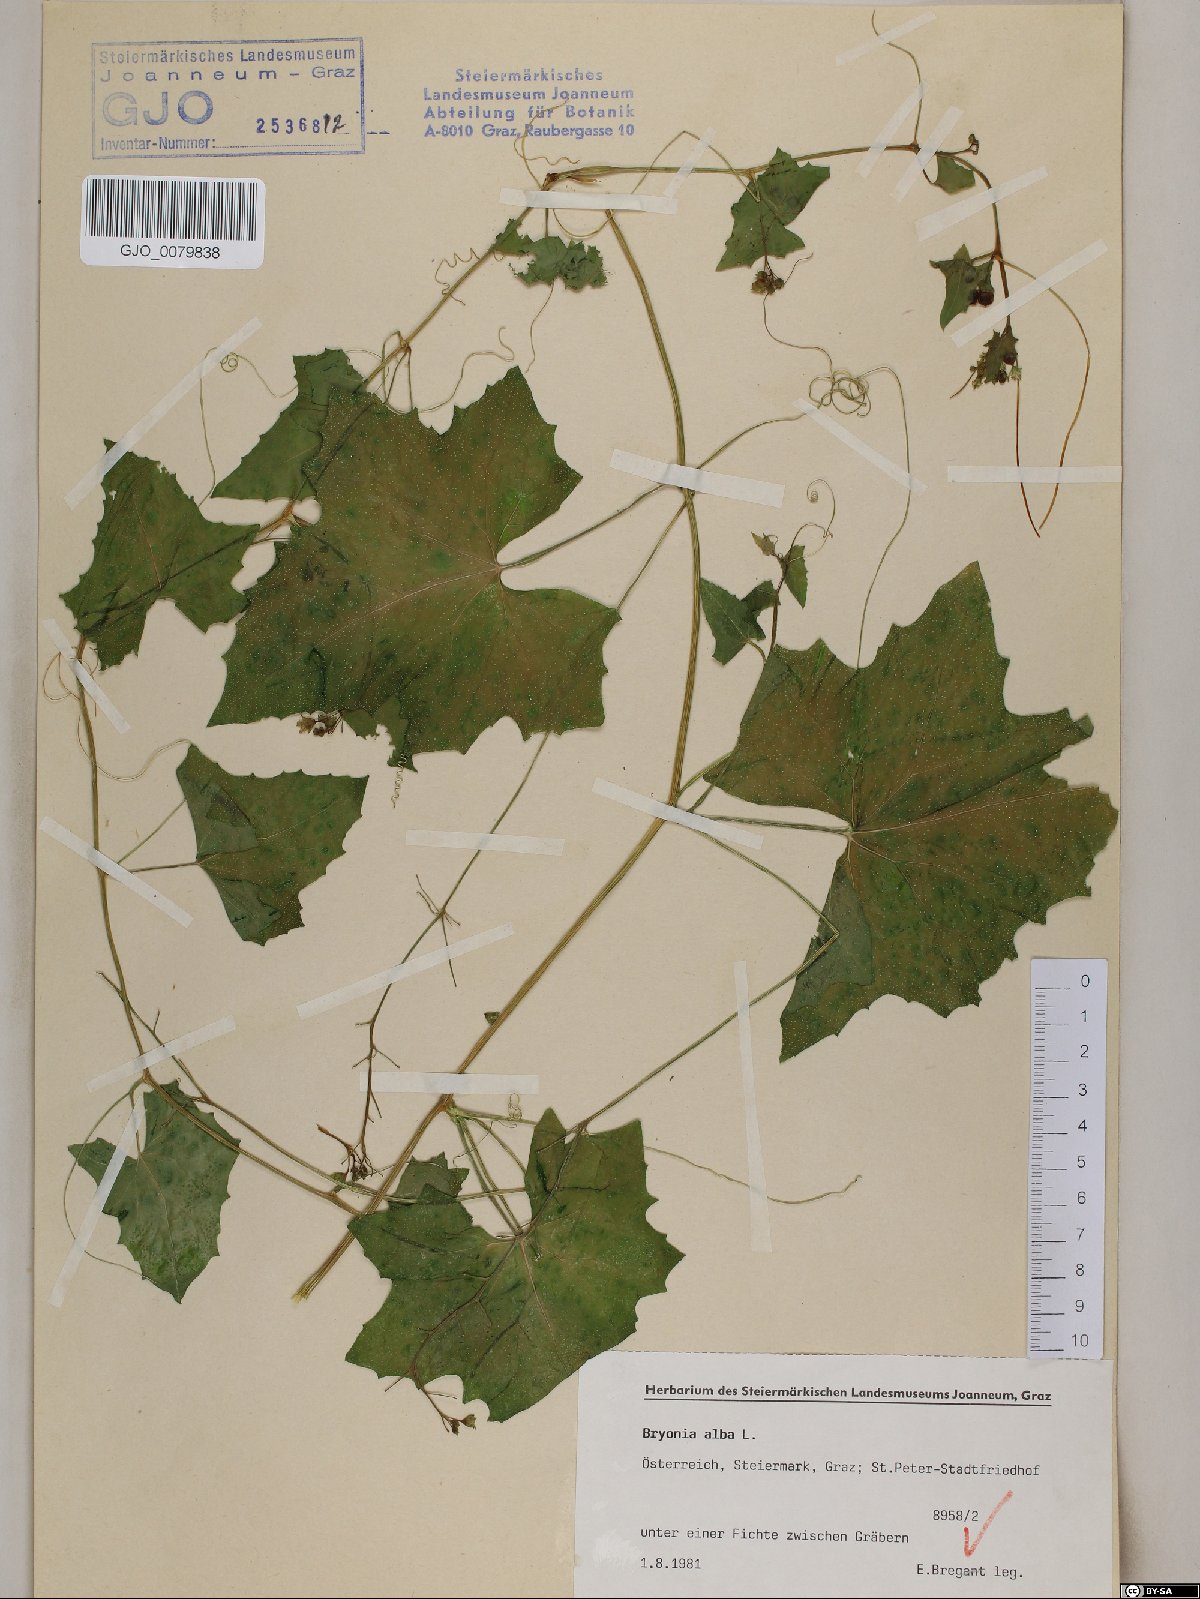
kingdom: Plantae
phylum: Tracheophyta
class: Magnoliopsida
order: Cucurbitales
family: Cucurbitaceae
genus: Bryonia
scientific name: Bryonia alba
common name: White bryony
